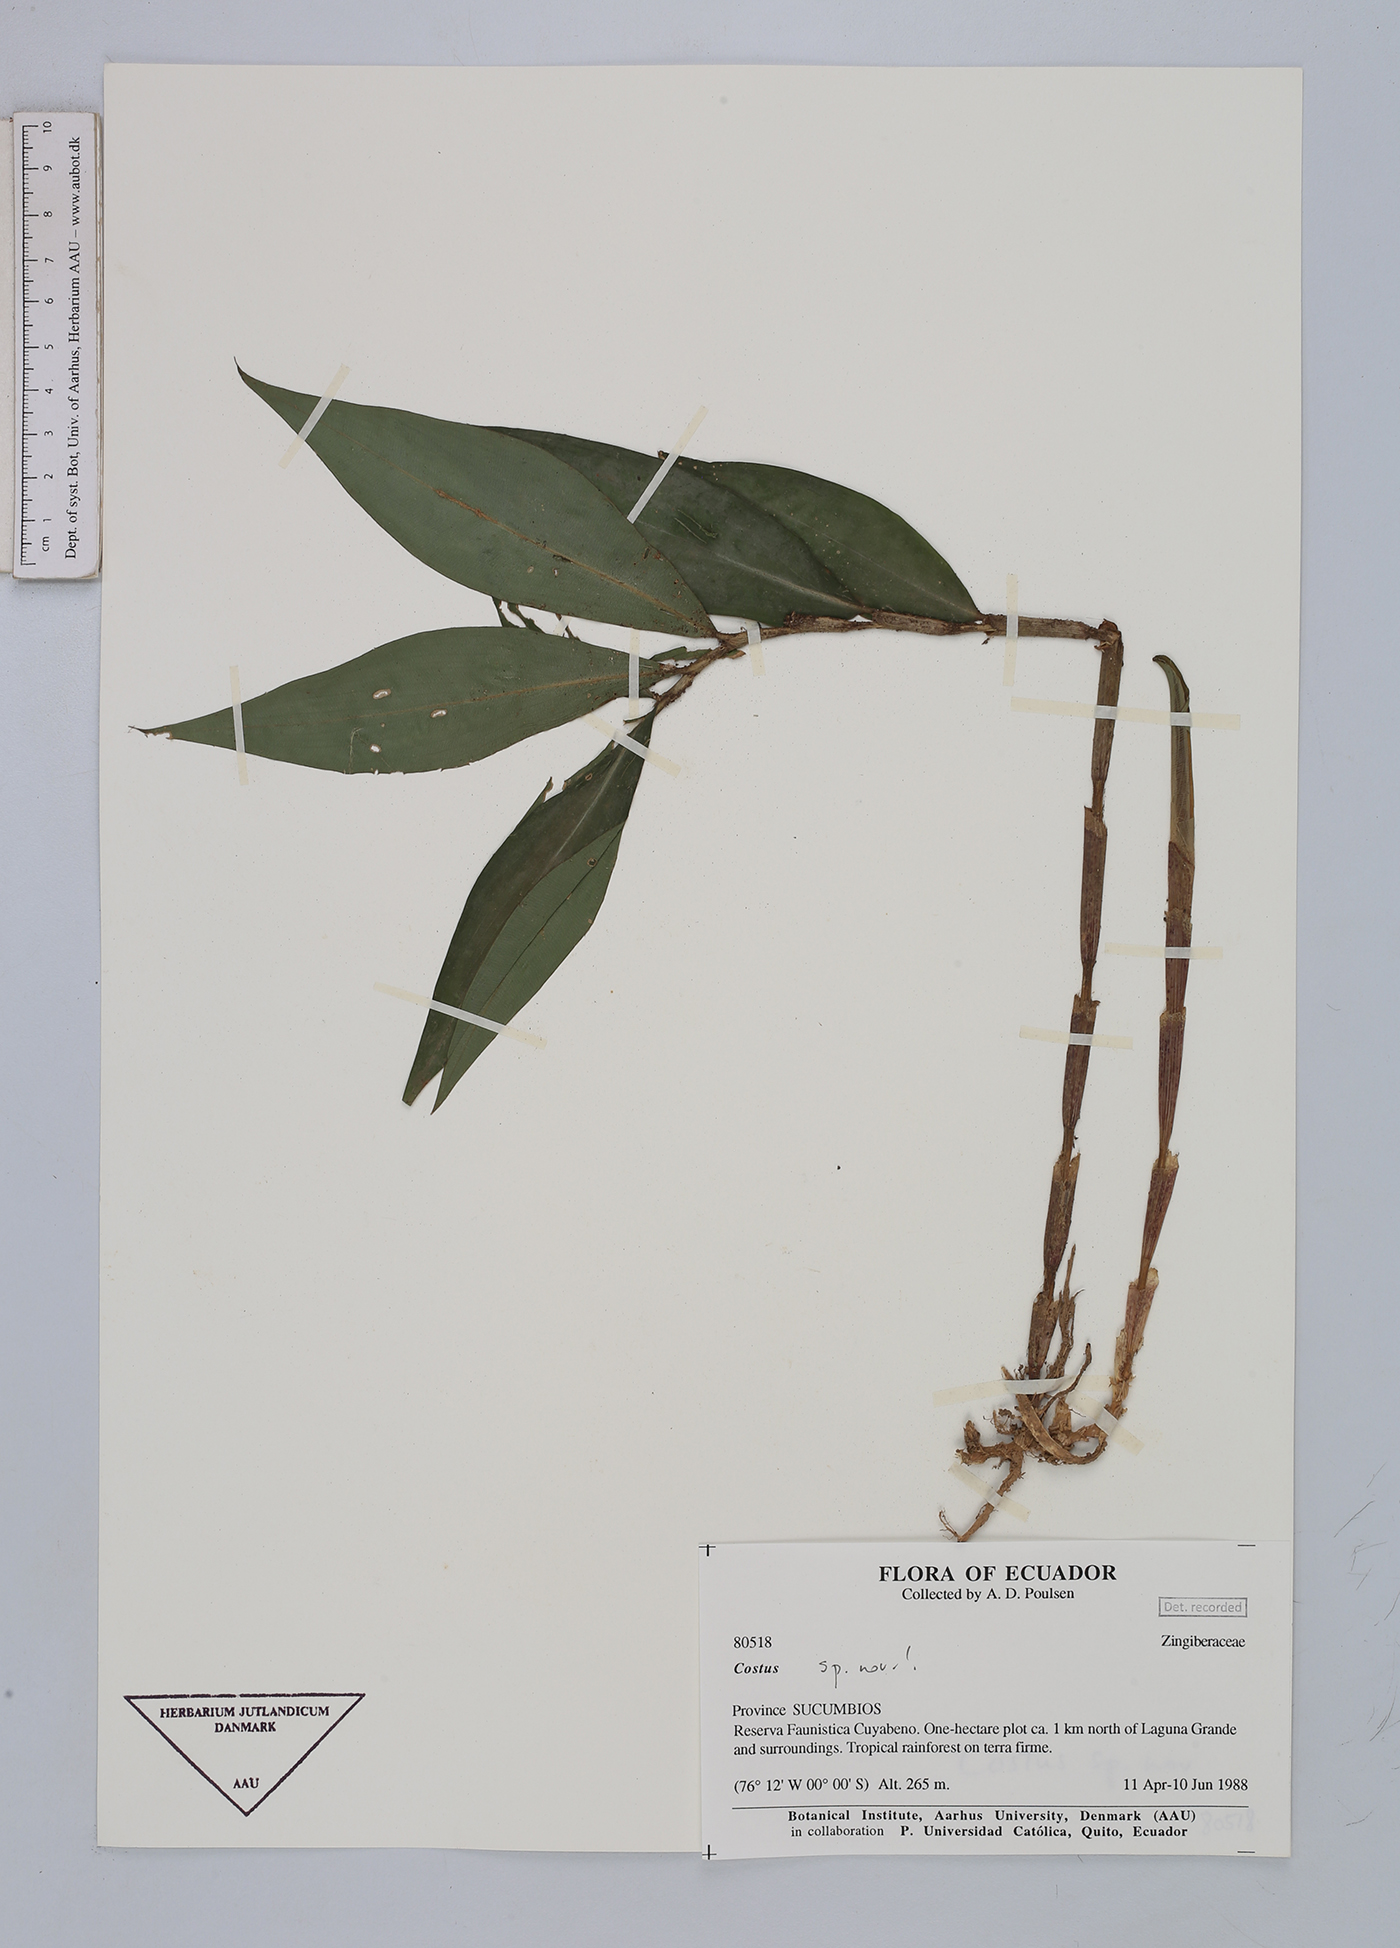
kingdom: Plantae
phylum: Tracheophyta
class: Liliopsida
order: Zingiberales
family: Costaceae
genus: Costus
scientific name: Costus
